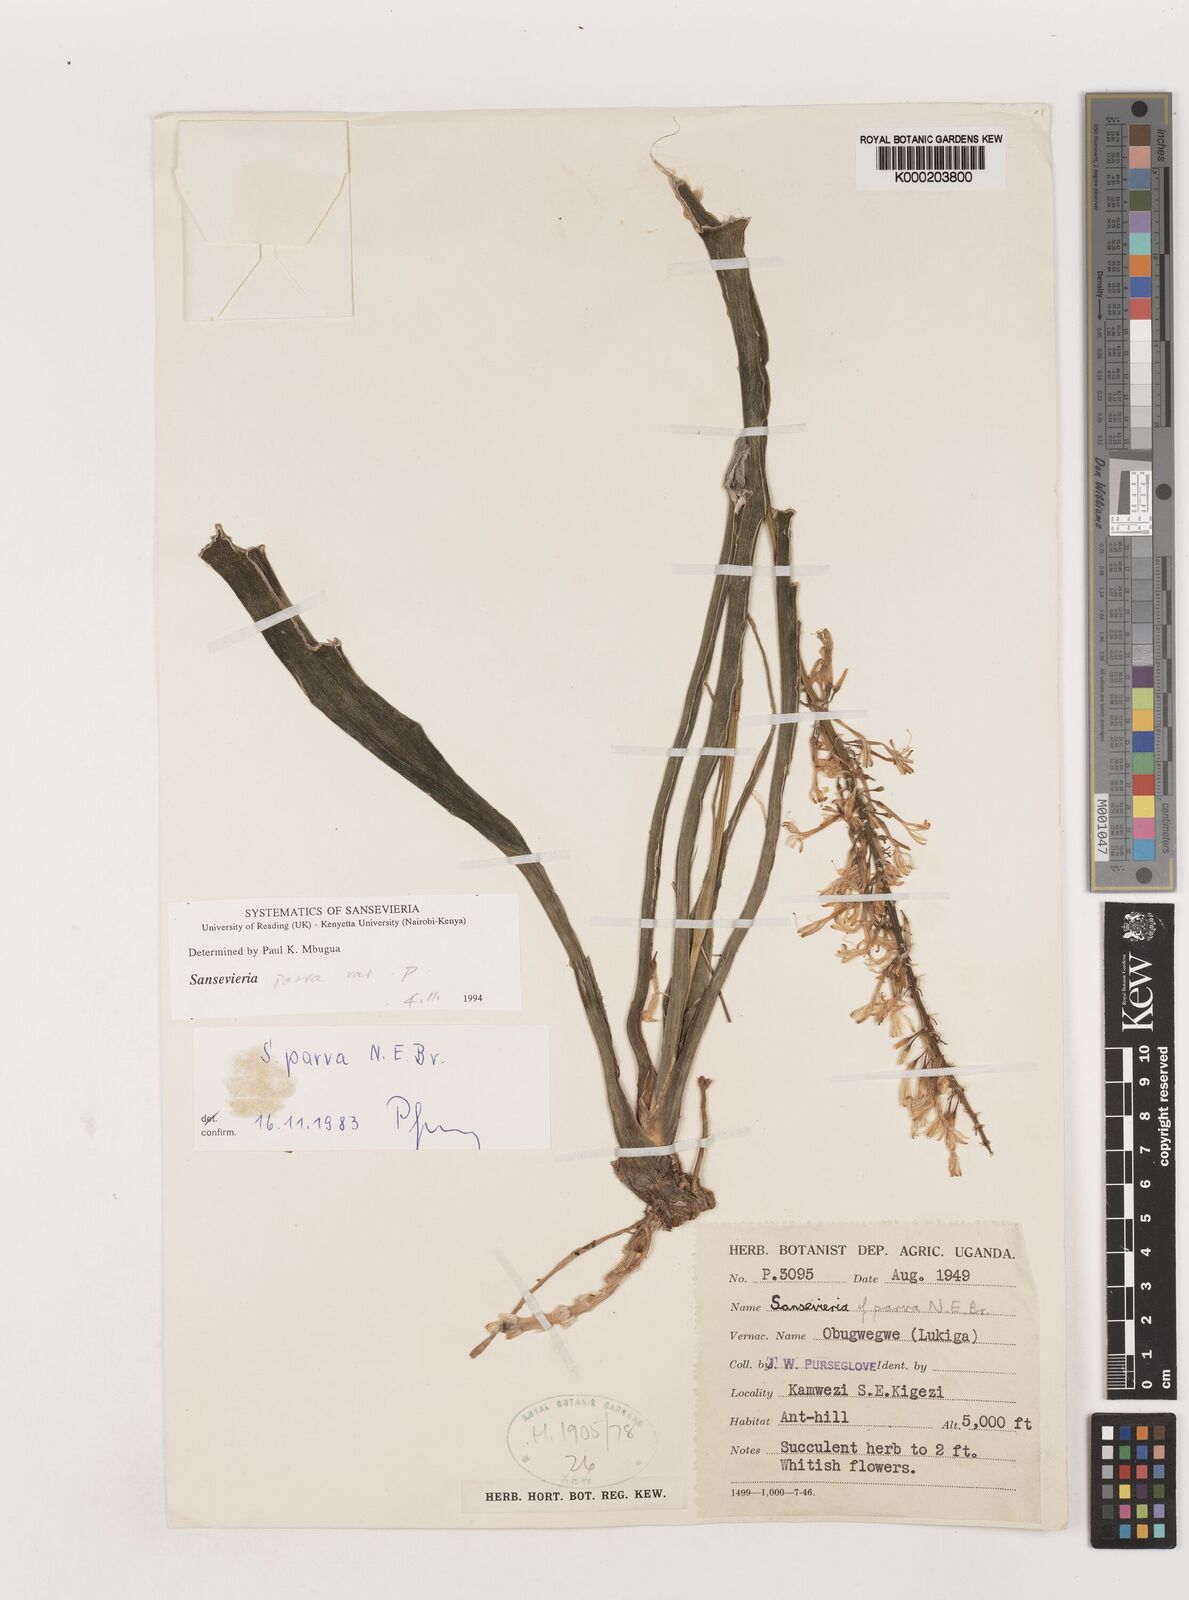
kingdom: Plantae
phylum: Tracheophyta
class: Liliopsida
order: Asparagales
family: Asparagaceae
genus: Dracaena
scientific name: Dracaena parva
